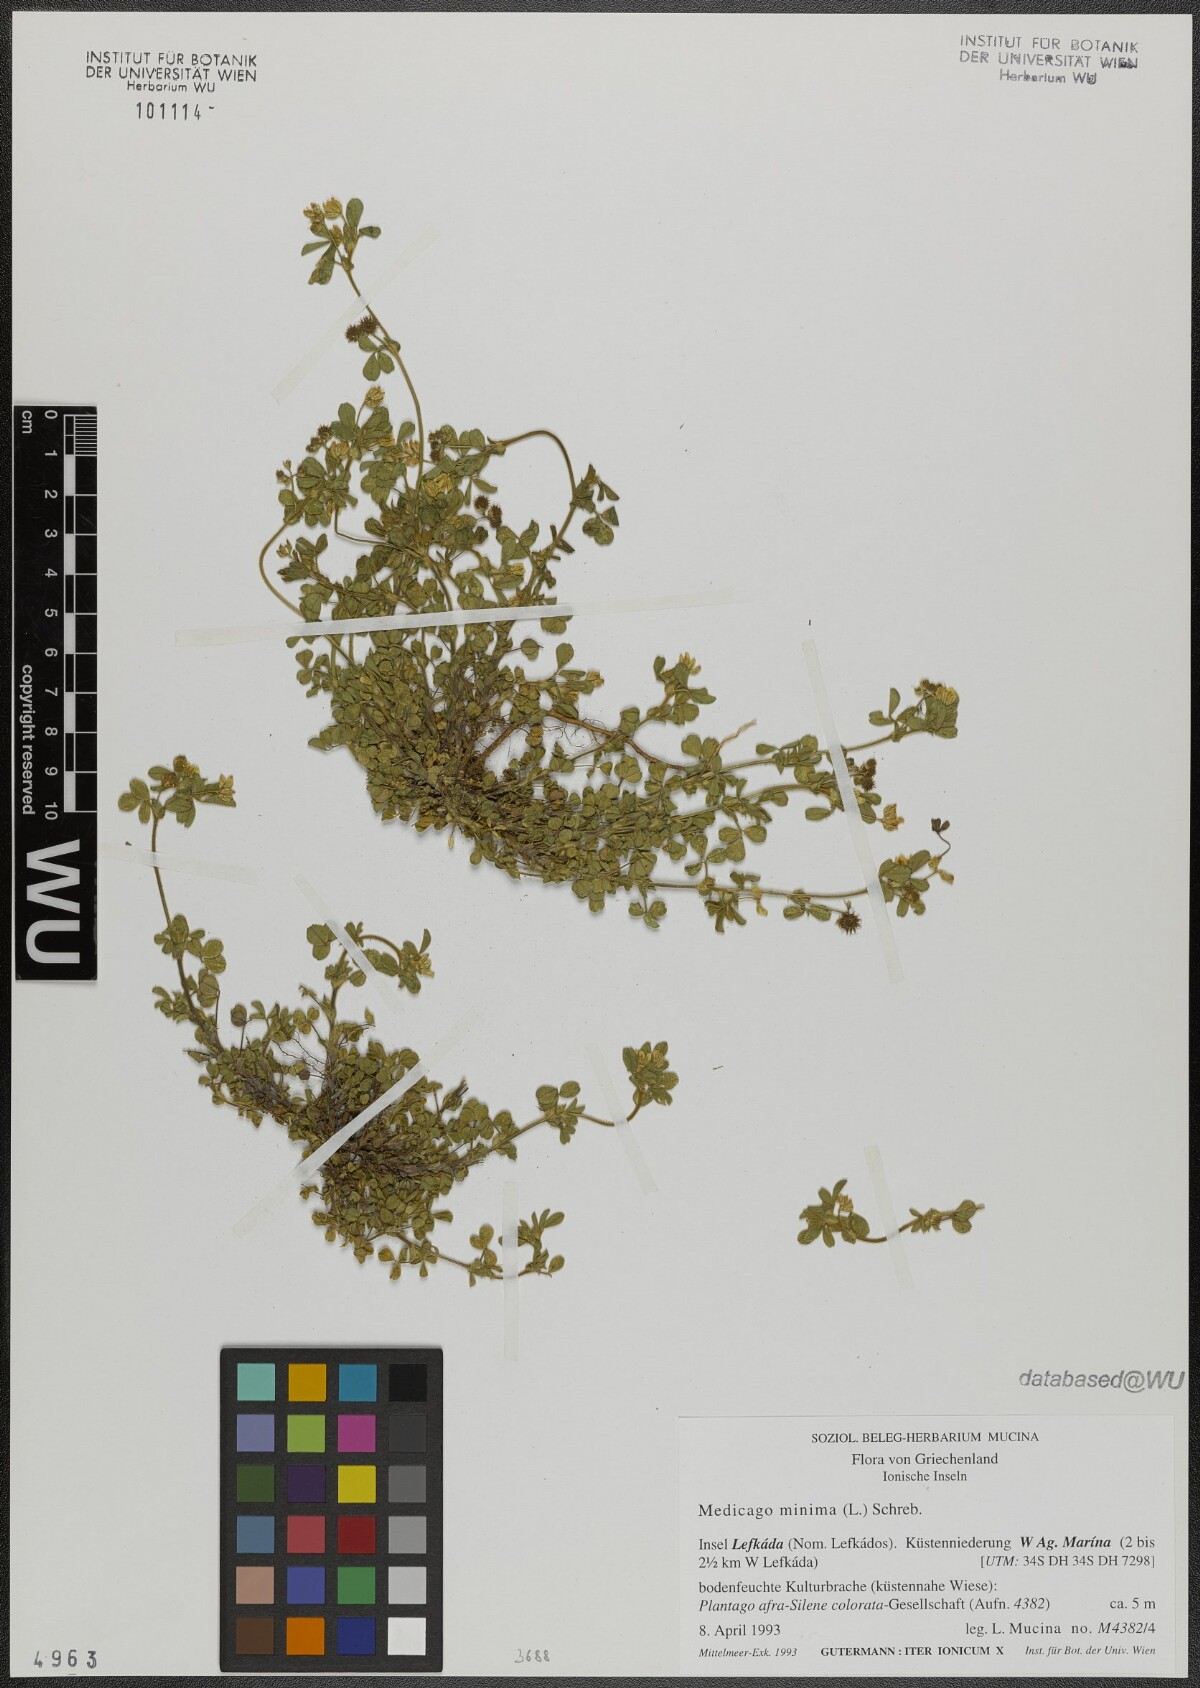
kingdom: Plantae
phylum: Tracheophyta
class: Magnoliopsida
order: Fabales
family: Fabaceae
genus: Medicago
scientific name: Medicago minima
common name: Little bur-clover
